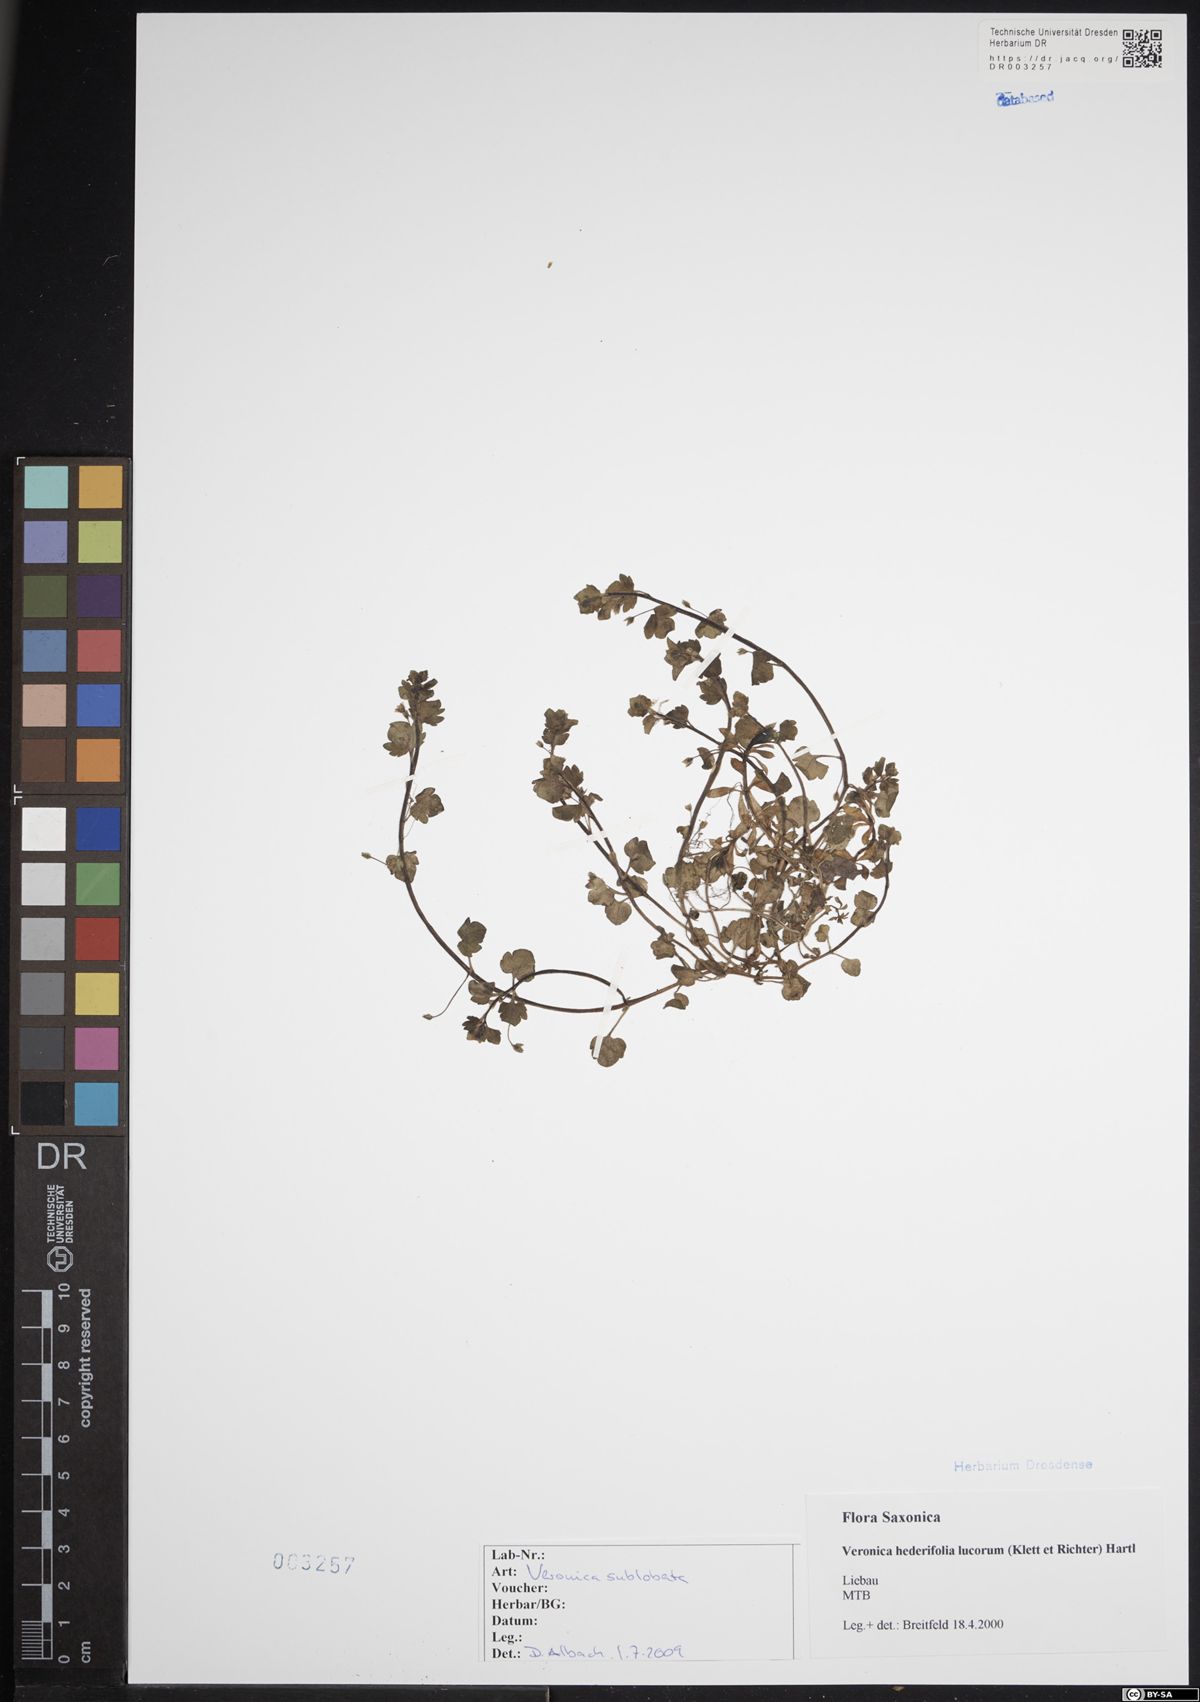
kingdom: Plantae
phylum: Tracheophyta
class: Magnoliopsida
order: Lamiales
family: Plantaginaceae
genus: Veronica
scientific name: Veronica sublobata
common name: False ivy-leaved speedwell
